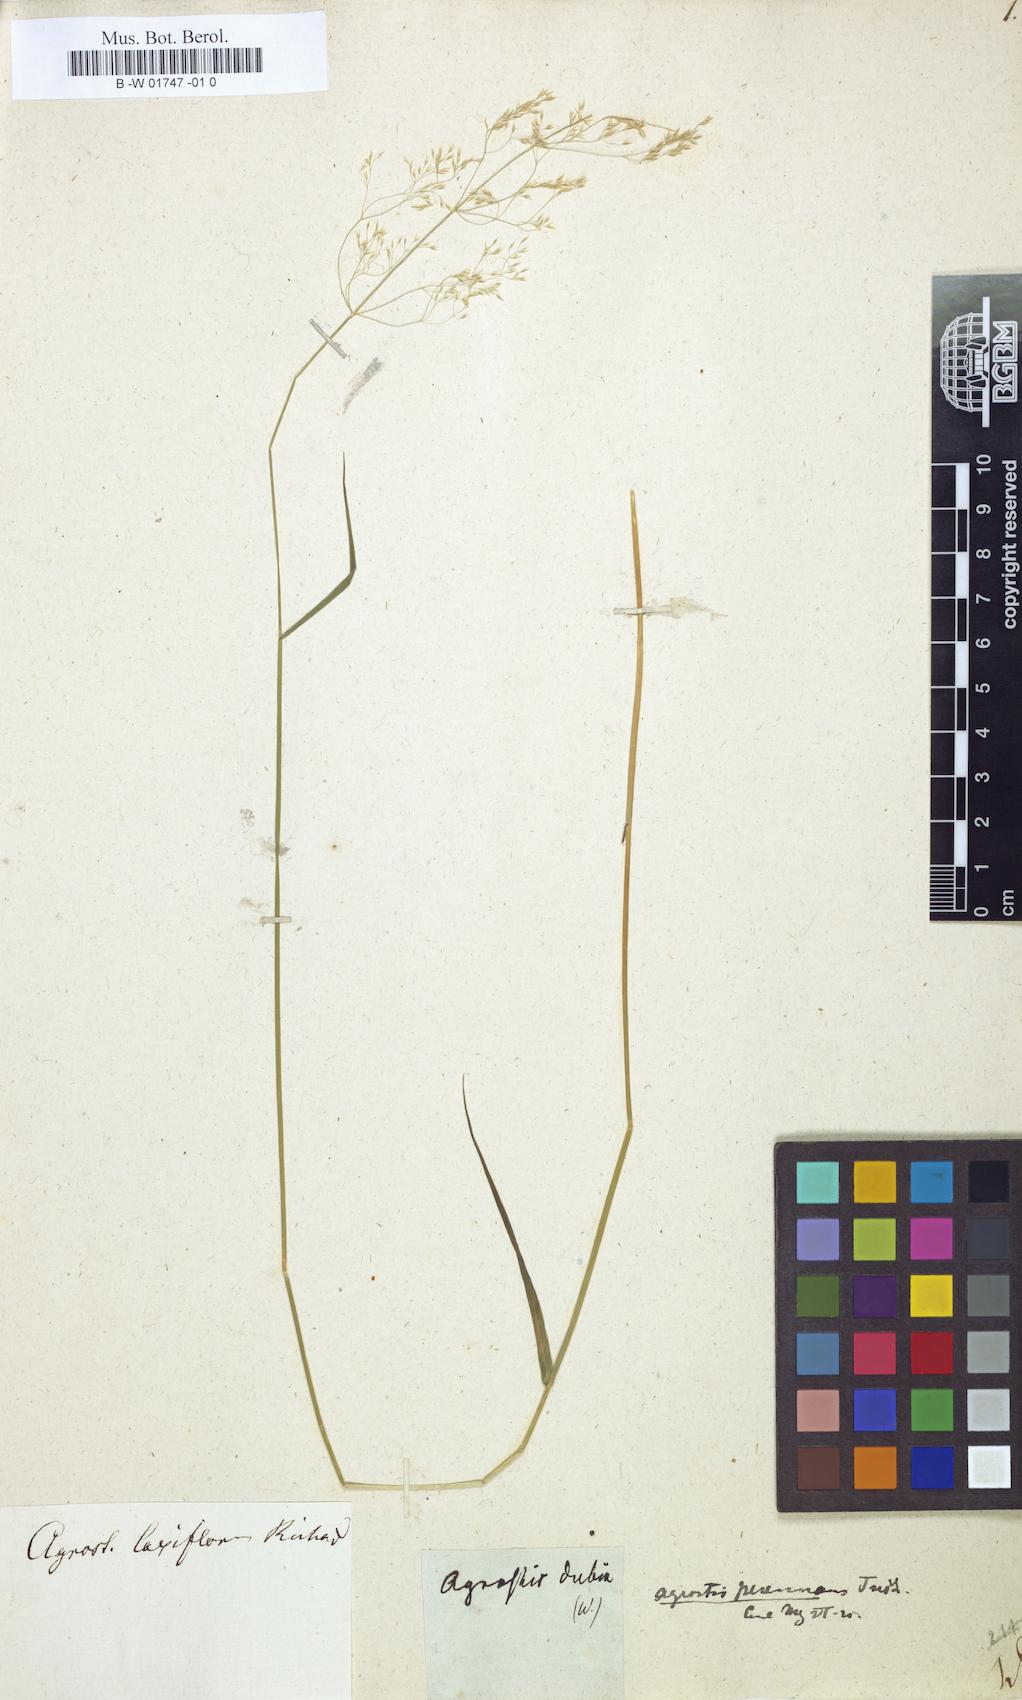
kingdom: Plantae
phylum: Tracheophyta
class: Liliopsida
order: Poales
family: Poaceae
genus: Agrostis
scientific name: Agrostis dubia
